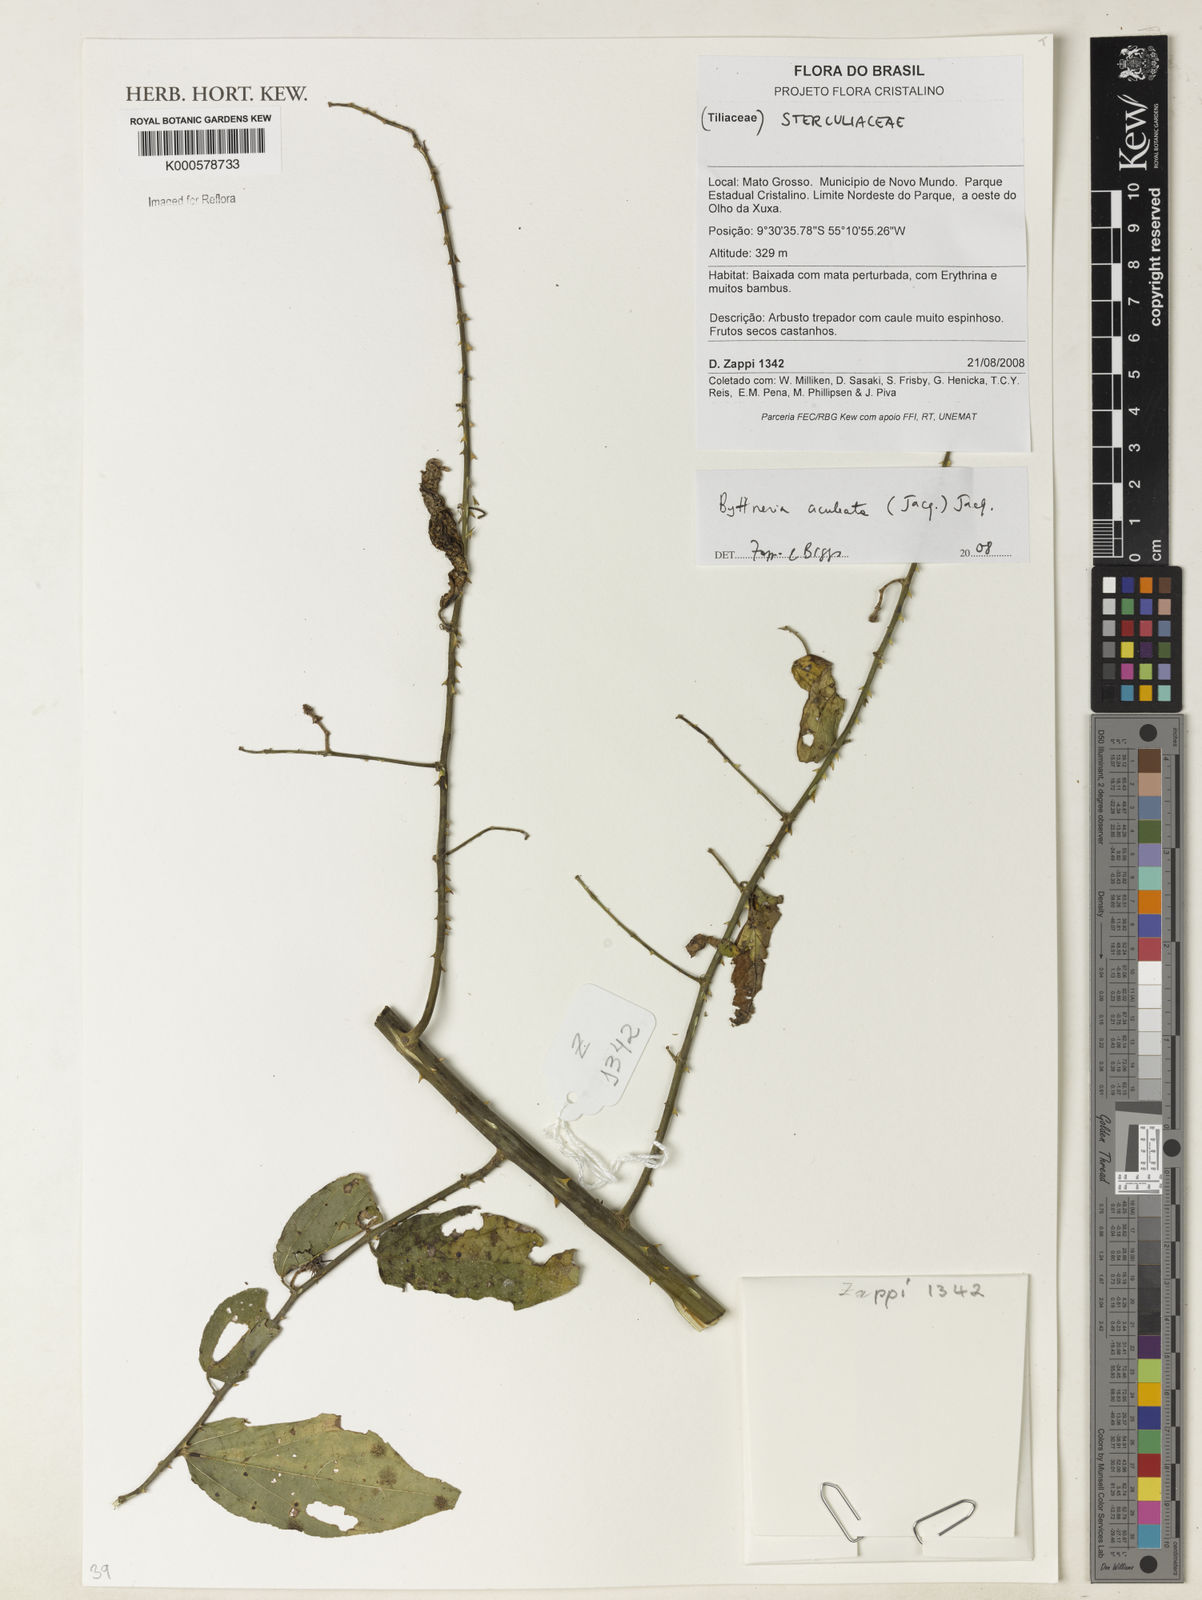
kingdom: Plantae
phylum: Tracheophyta
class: Magnoliopsida
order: Malvales
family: Malvaceae
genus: Byttneria
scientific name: Byttneria aculeata
